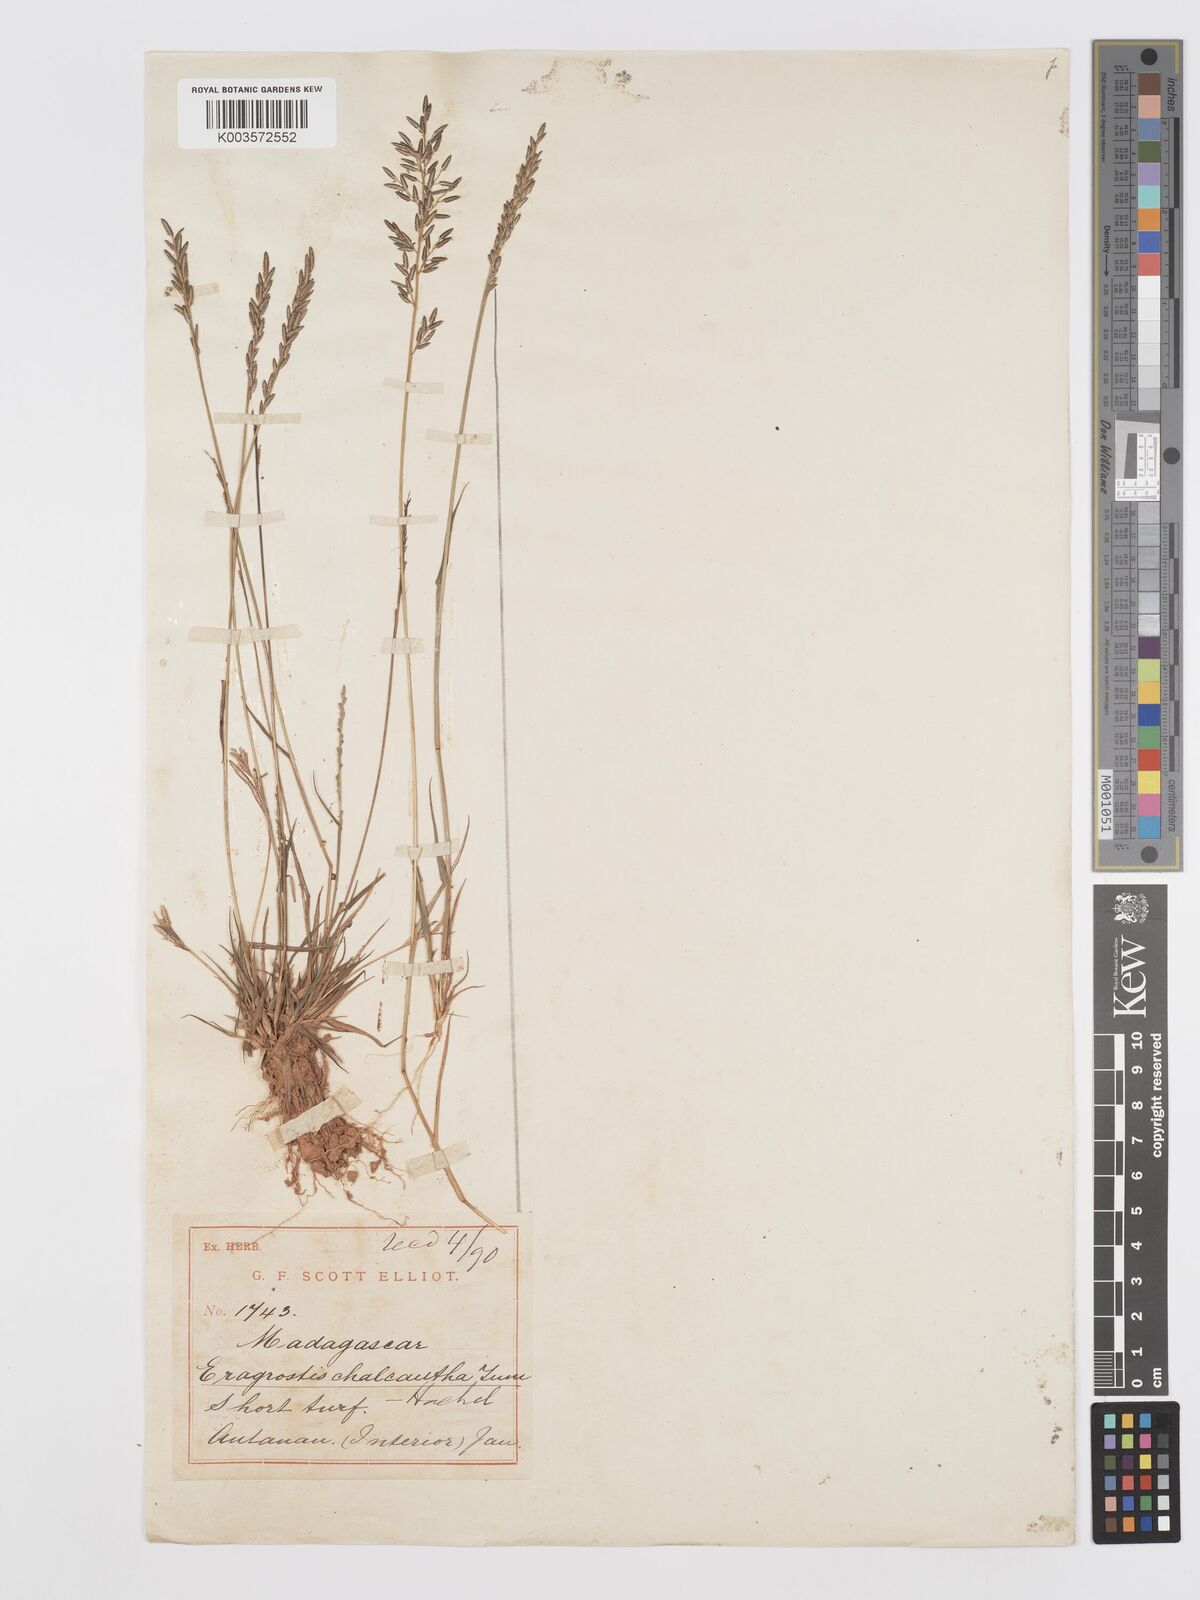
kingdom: Plantae
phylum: Tracheophyta
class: Liliopsida
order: Poales
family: Poaceae
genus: Eragrostis
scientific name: Eragrostis lateritica
